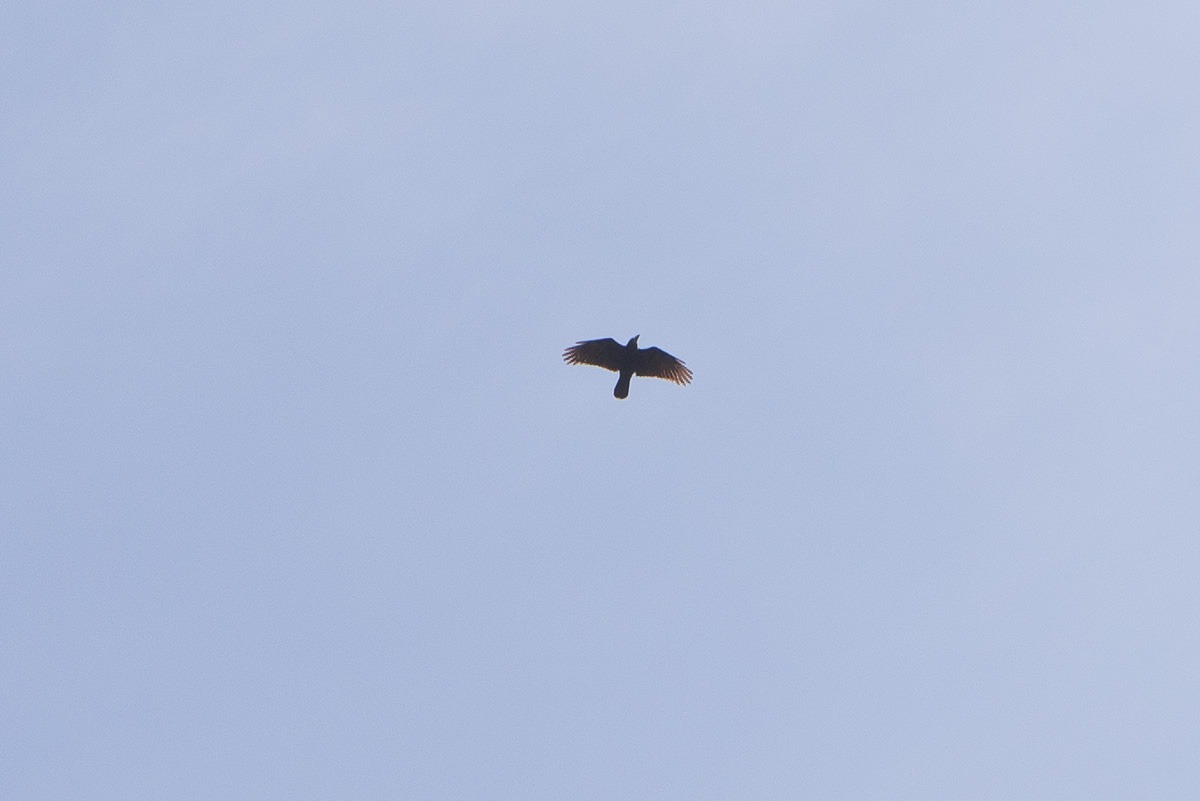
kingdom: Animalia
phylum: Chordata
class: Aves
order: Passeriformes
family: Corvidae
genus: Corvus
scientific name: Corvus frugilegus
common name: Råge
